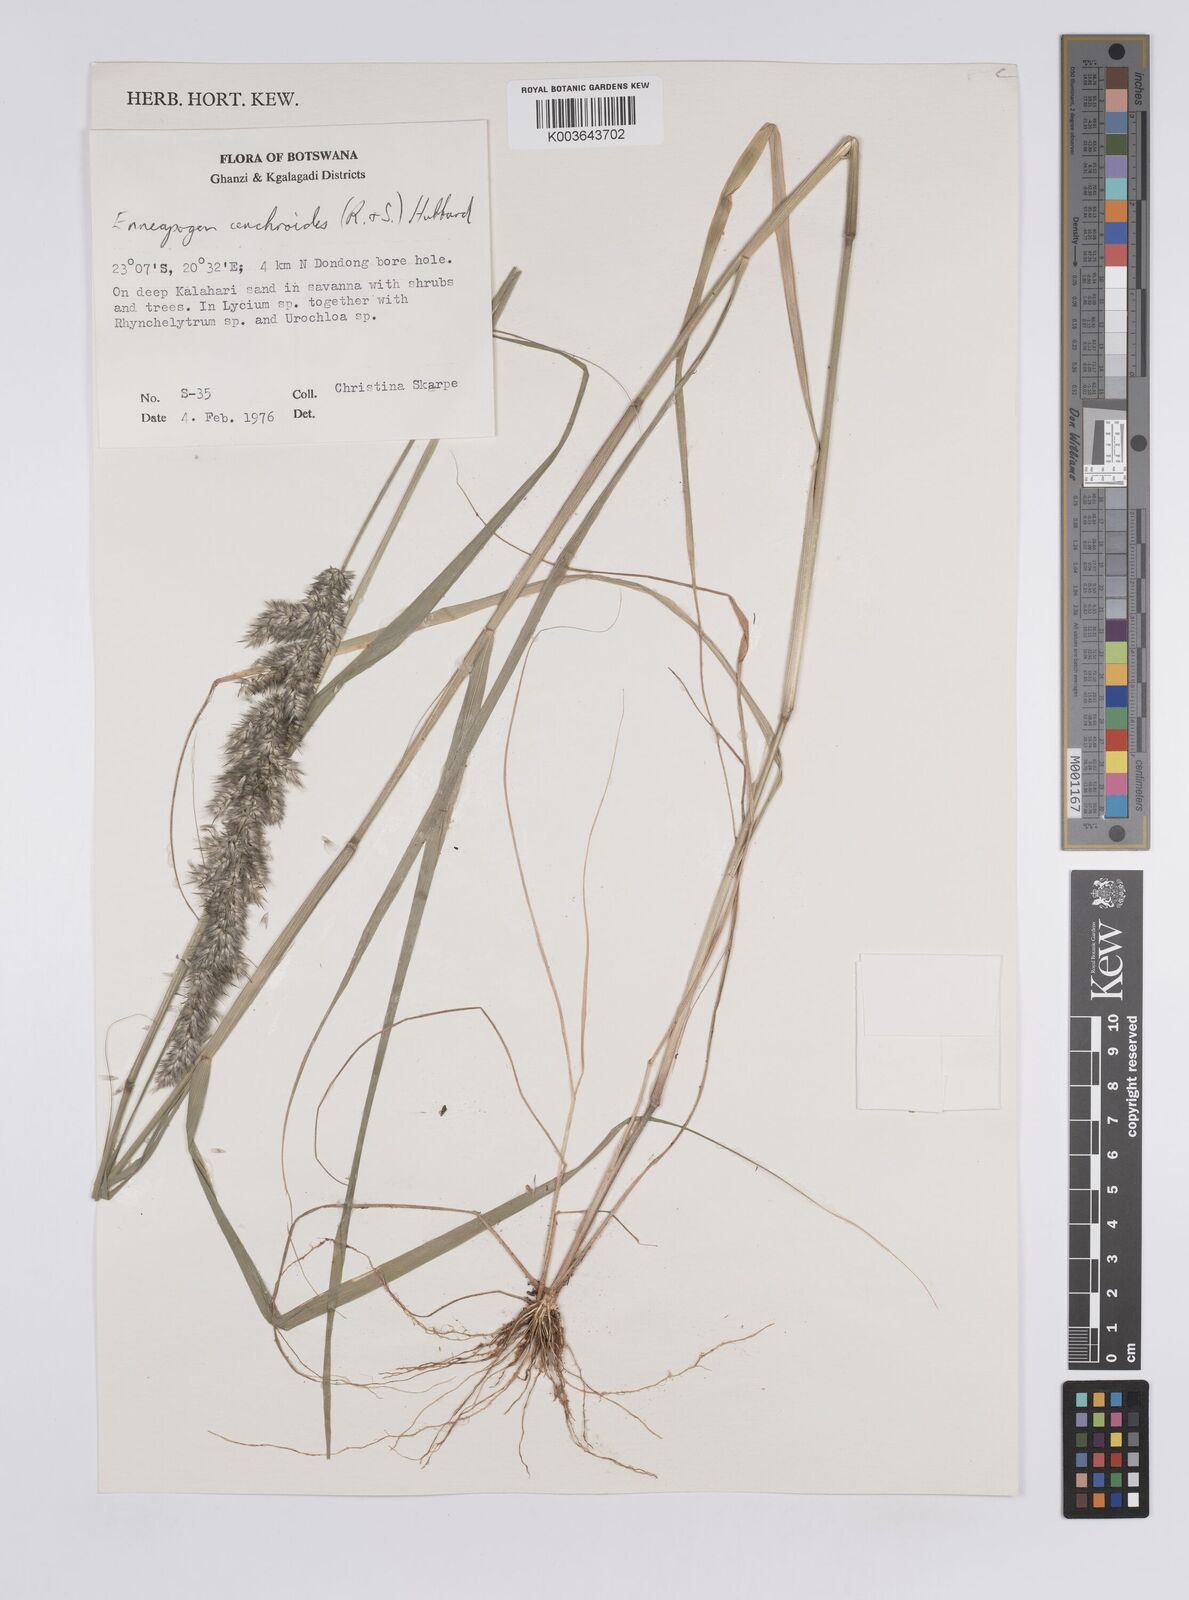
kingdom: Plantae
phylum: Tracheophyta
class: Liliopsida
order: Poales
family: Poaceae
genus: Enneapogon
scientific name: Enneapogon cenchroides
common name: Soft feather pappusgrass
